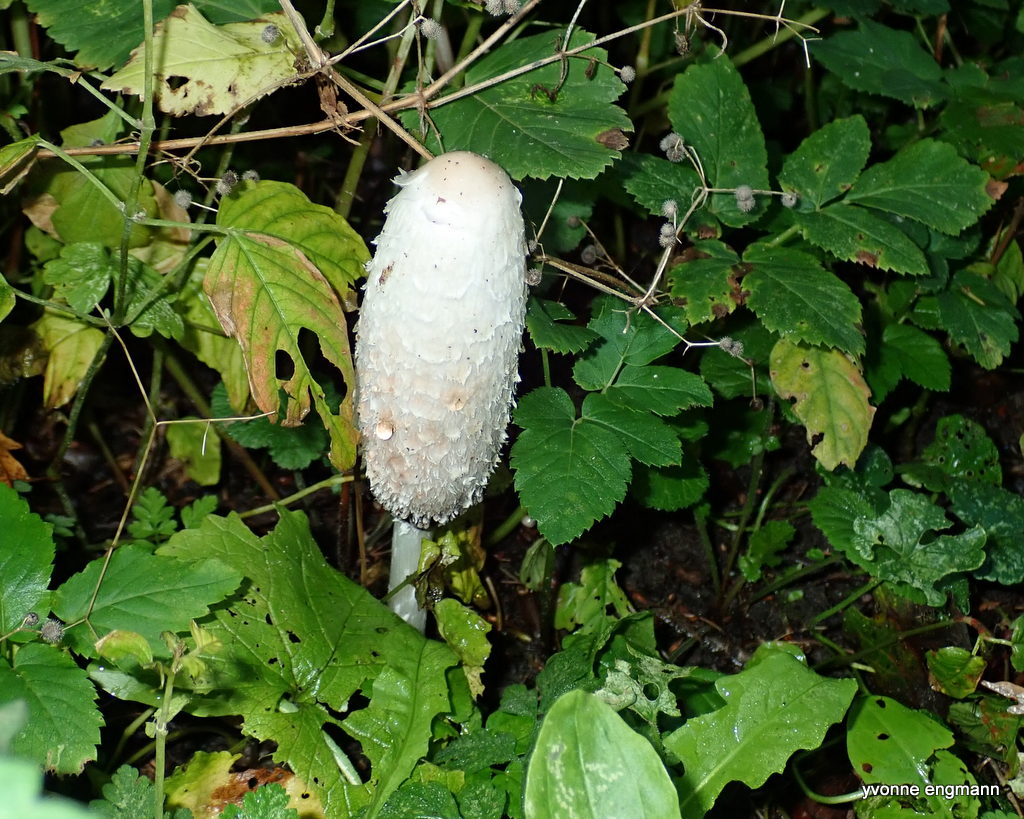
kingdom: Fungi
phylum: Basidiomycota
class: Agaricomycetes
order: Agaricales
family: Agaricaceae
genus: Coprinus
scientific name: Coprinus comatus
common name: stor parykhat
